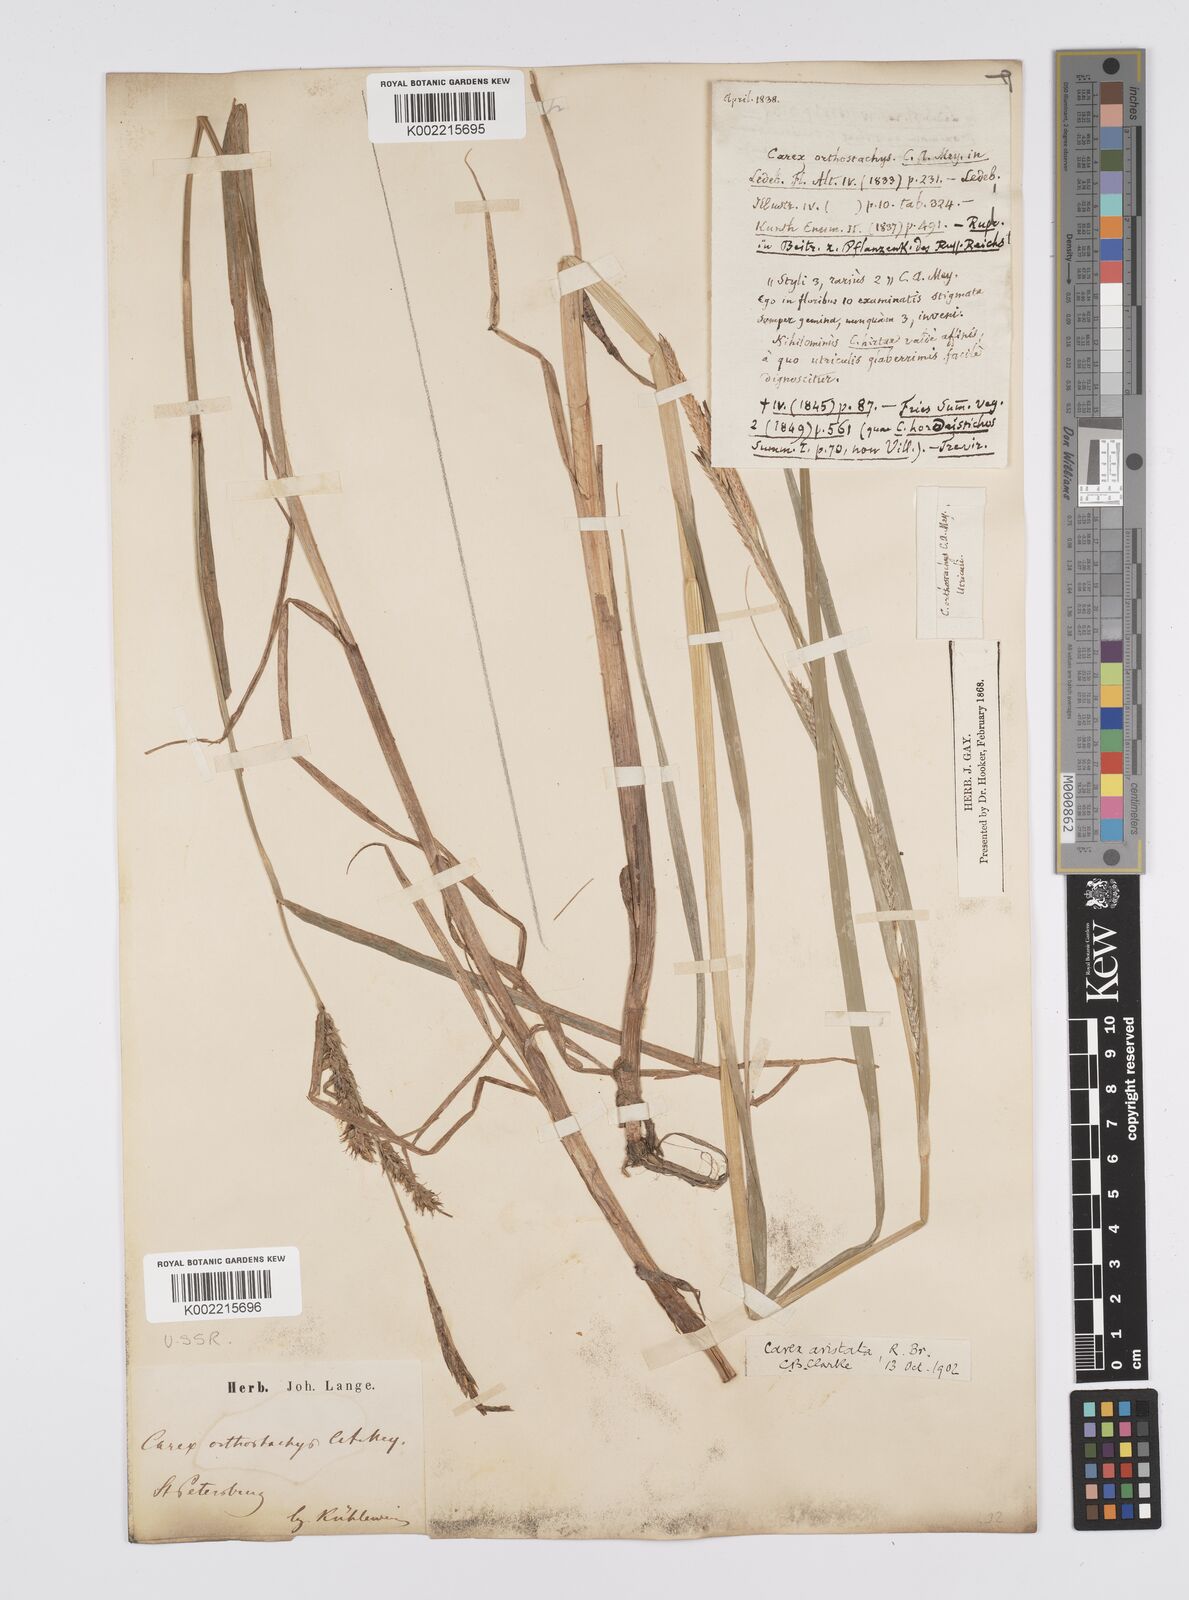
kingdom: Plantae
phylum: Tracheophyta
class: Liliopsida
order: Poales
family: Cyperaceae
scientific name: Cyperaceae
